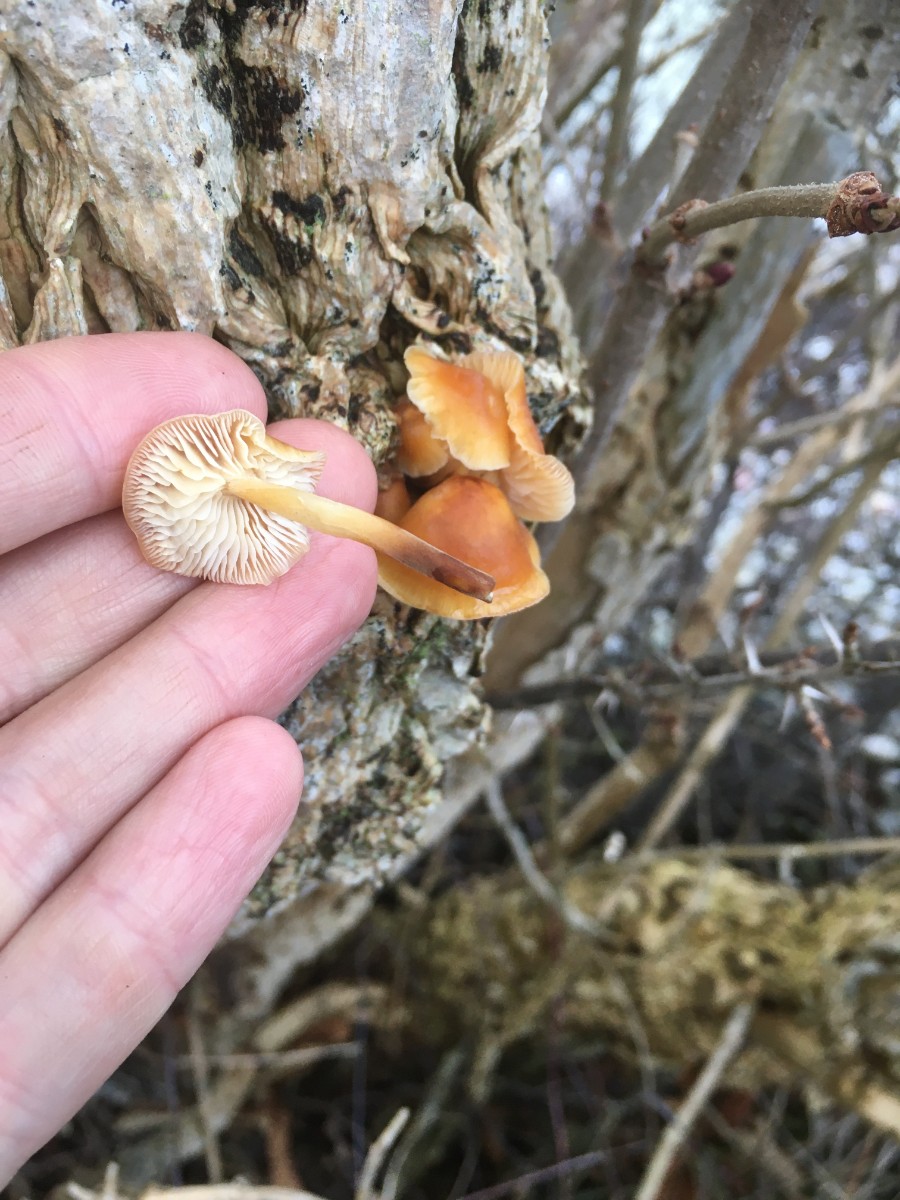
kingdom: Fungi
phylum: Basidiomycota
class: Agaricomycetes
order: Agaricales
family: Physalacriaceae
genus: Flammulina
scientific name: Flammulina velutipes
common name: gul fløjlsfod
